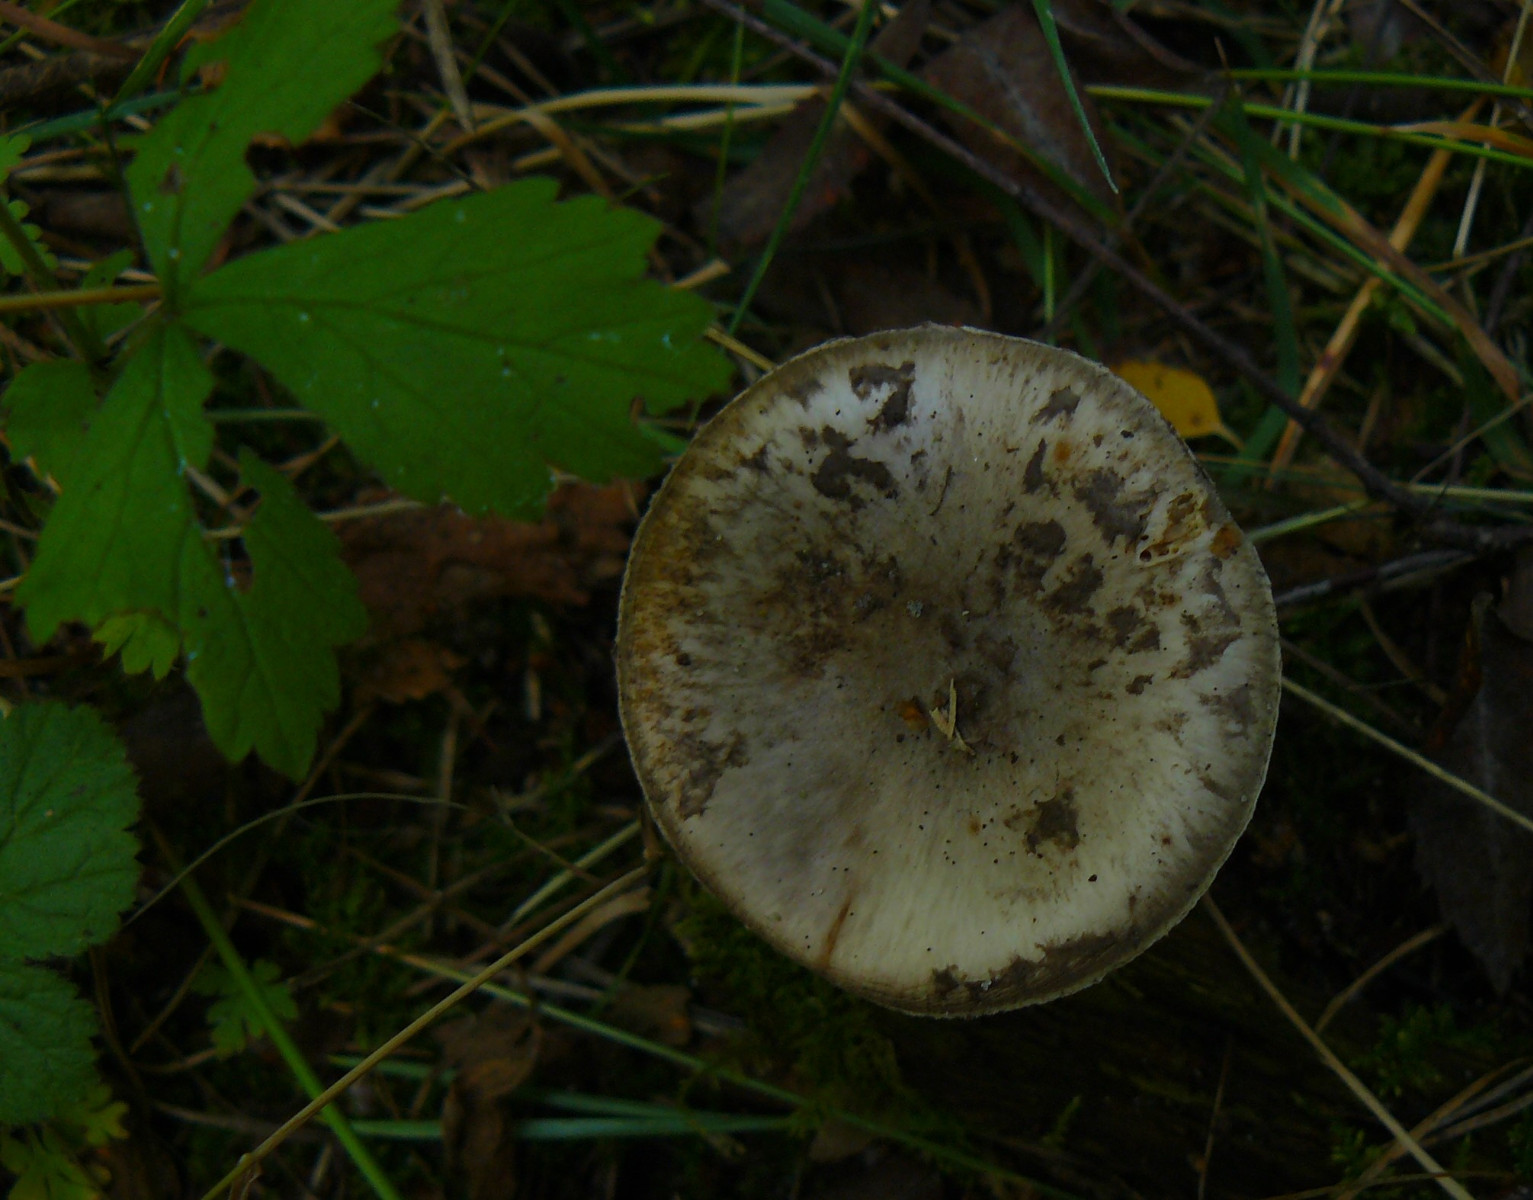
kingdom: Fungi
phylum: Basidiomycota
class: Agaricomycetes
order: Agaricales
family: Amanitaceae
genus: Amanita
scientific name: Amanita porphyria
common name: porfyr-fluesvamp
